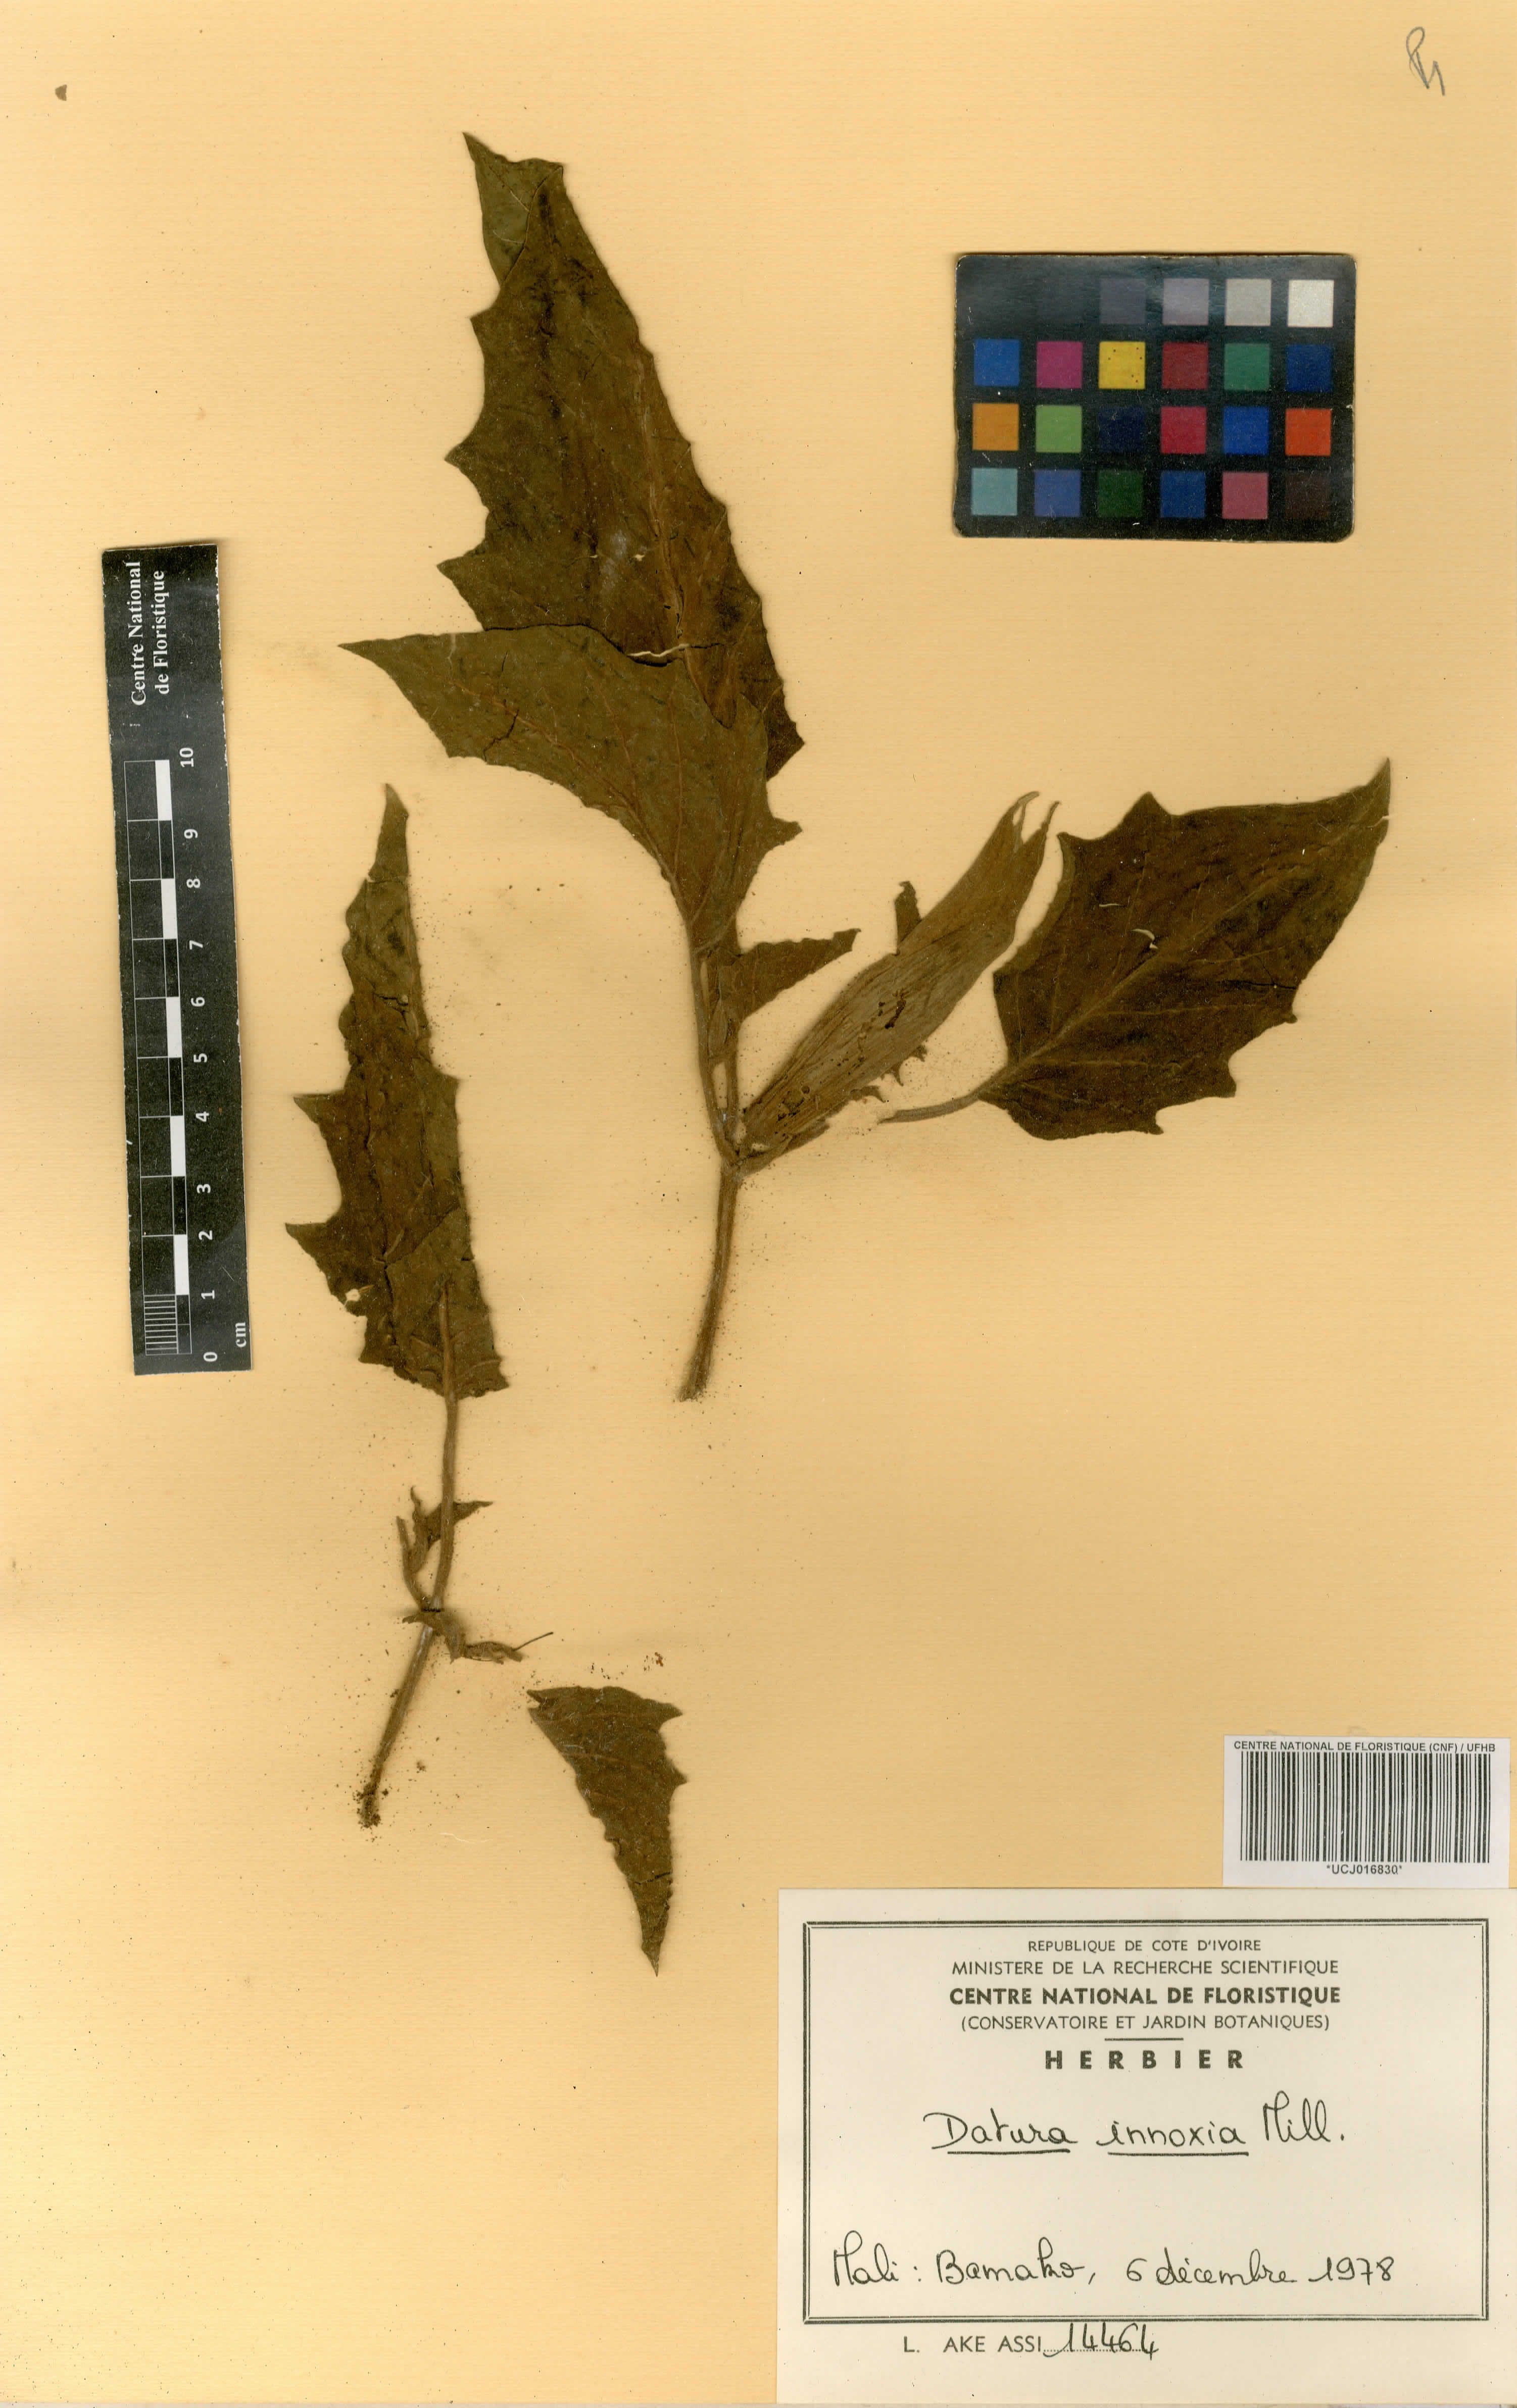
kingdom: Plantae
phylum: Tracheophyta
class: Magnoliopsida
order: Solanales
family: Solanaceae
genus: Datura
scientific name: Datura innoxia
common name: Downy thorn-apple
